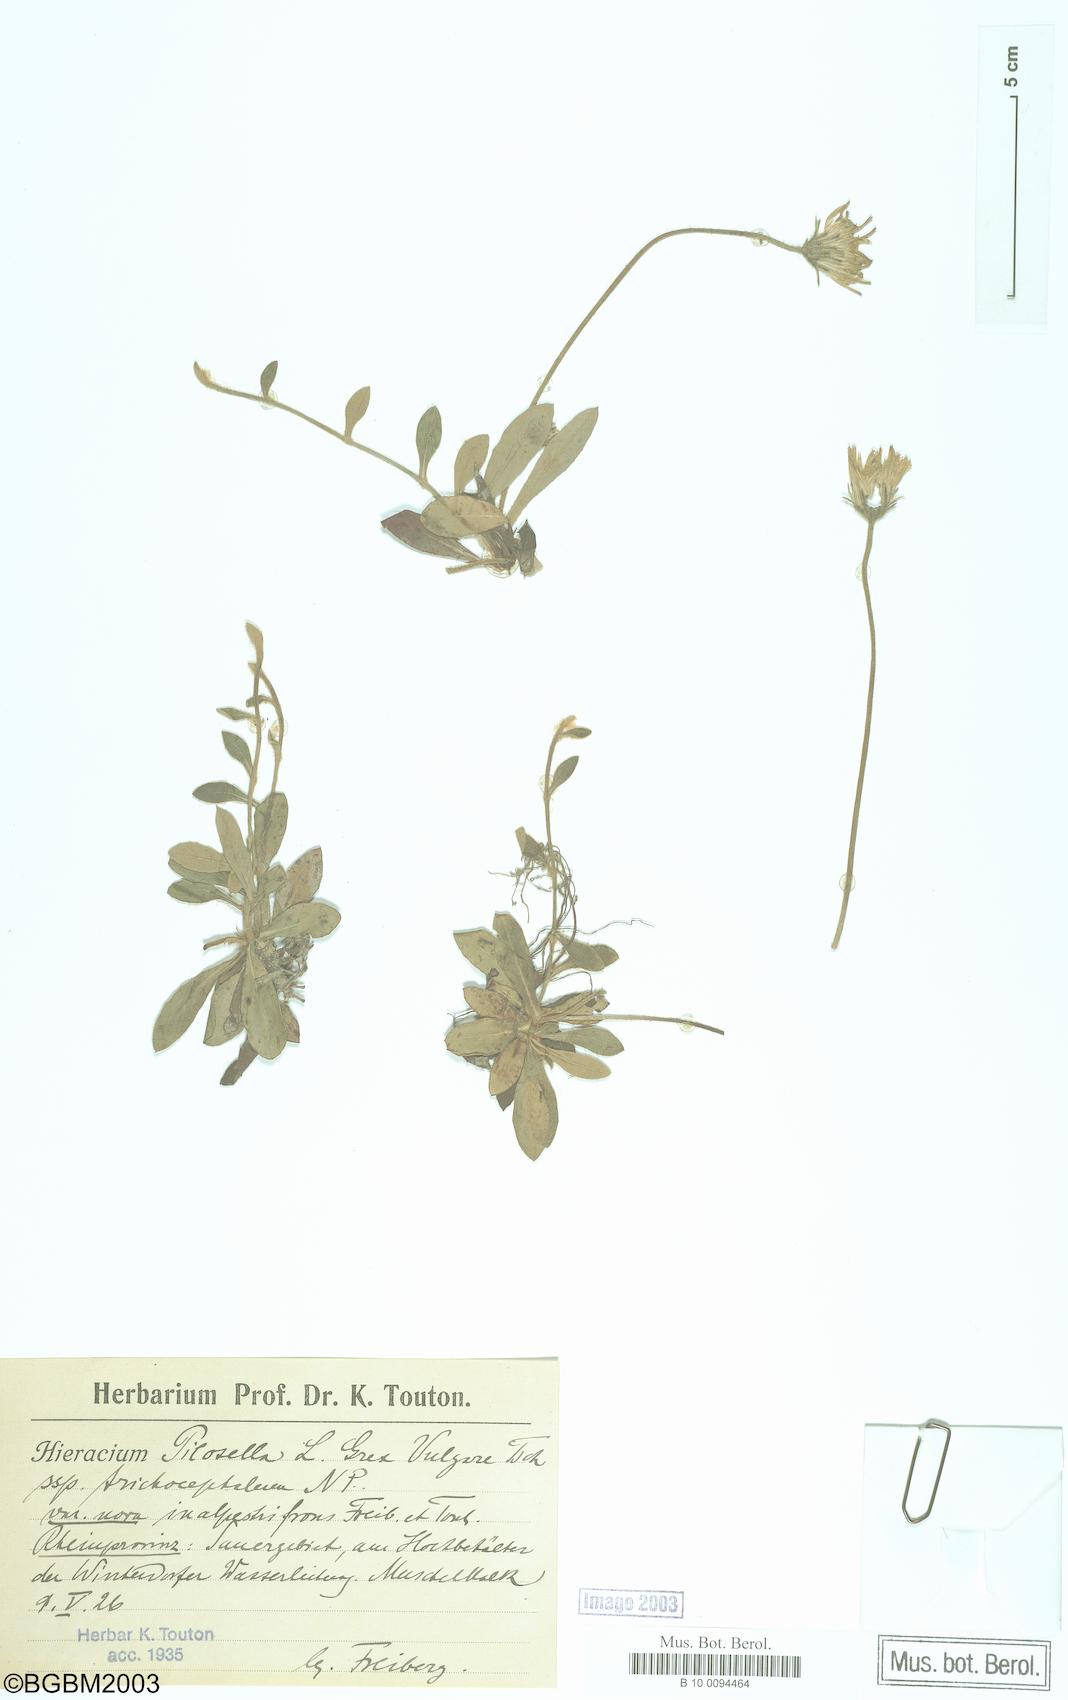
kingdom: Plantae
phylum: Tracheophyta
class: Magnoliopsida
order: Asterales
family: Asteraceae
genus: Pilosella
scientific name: Pilosella officinarum
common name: Mouse-ear hawkweed
